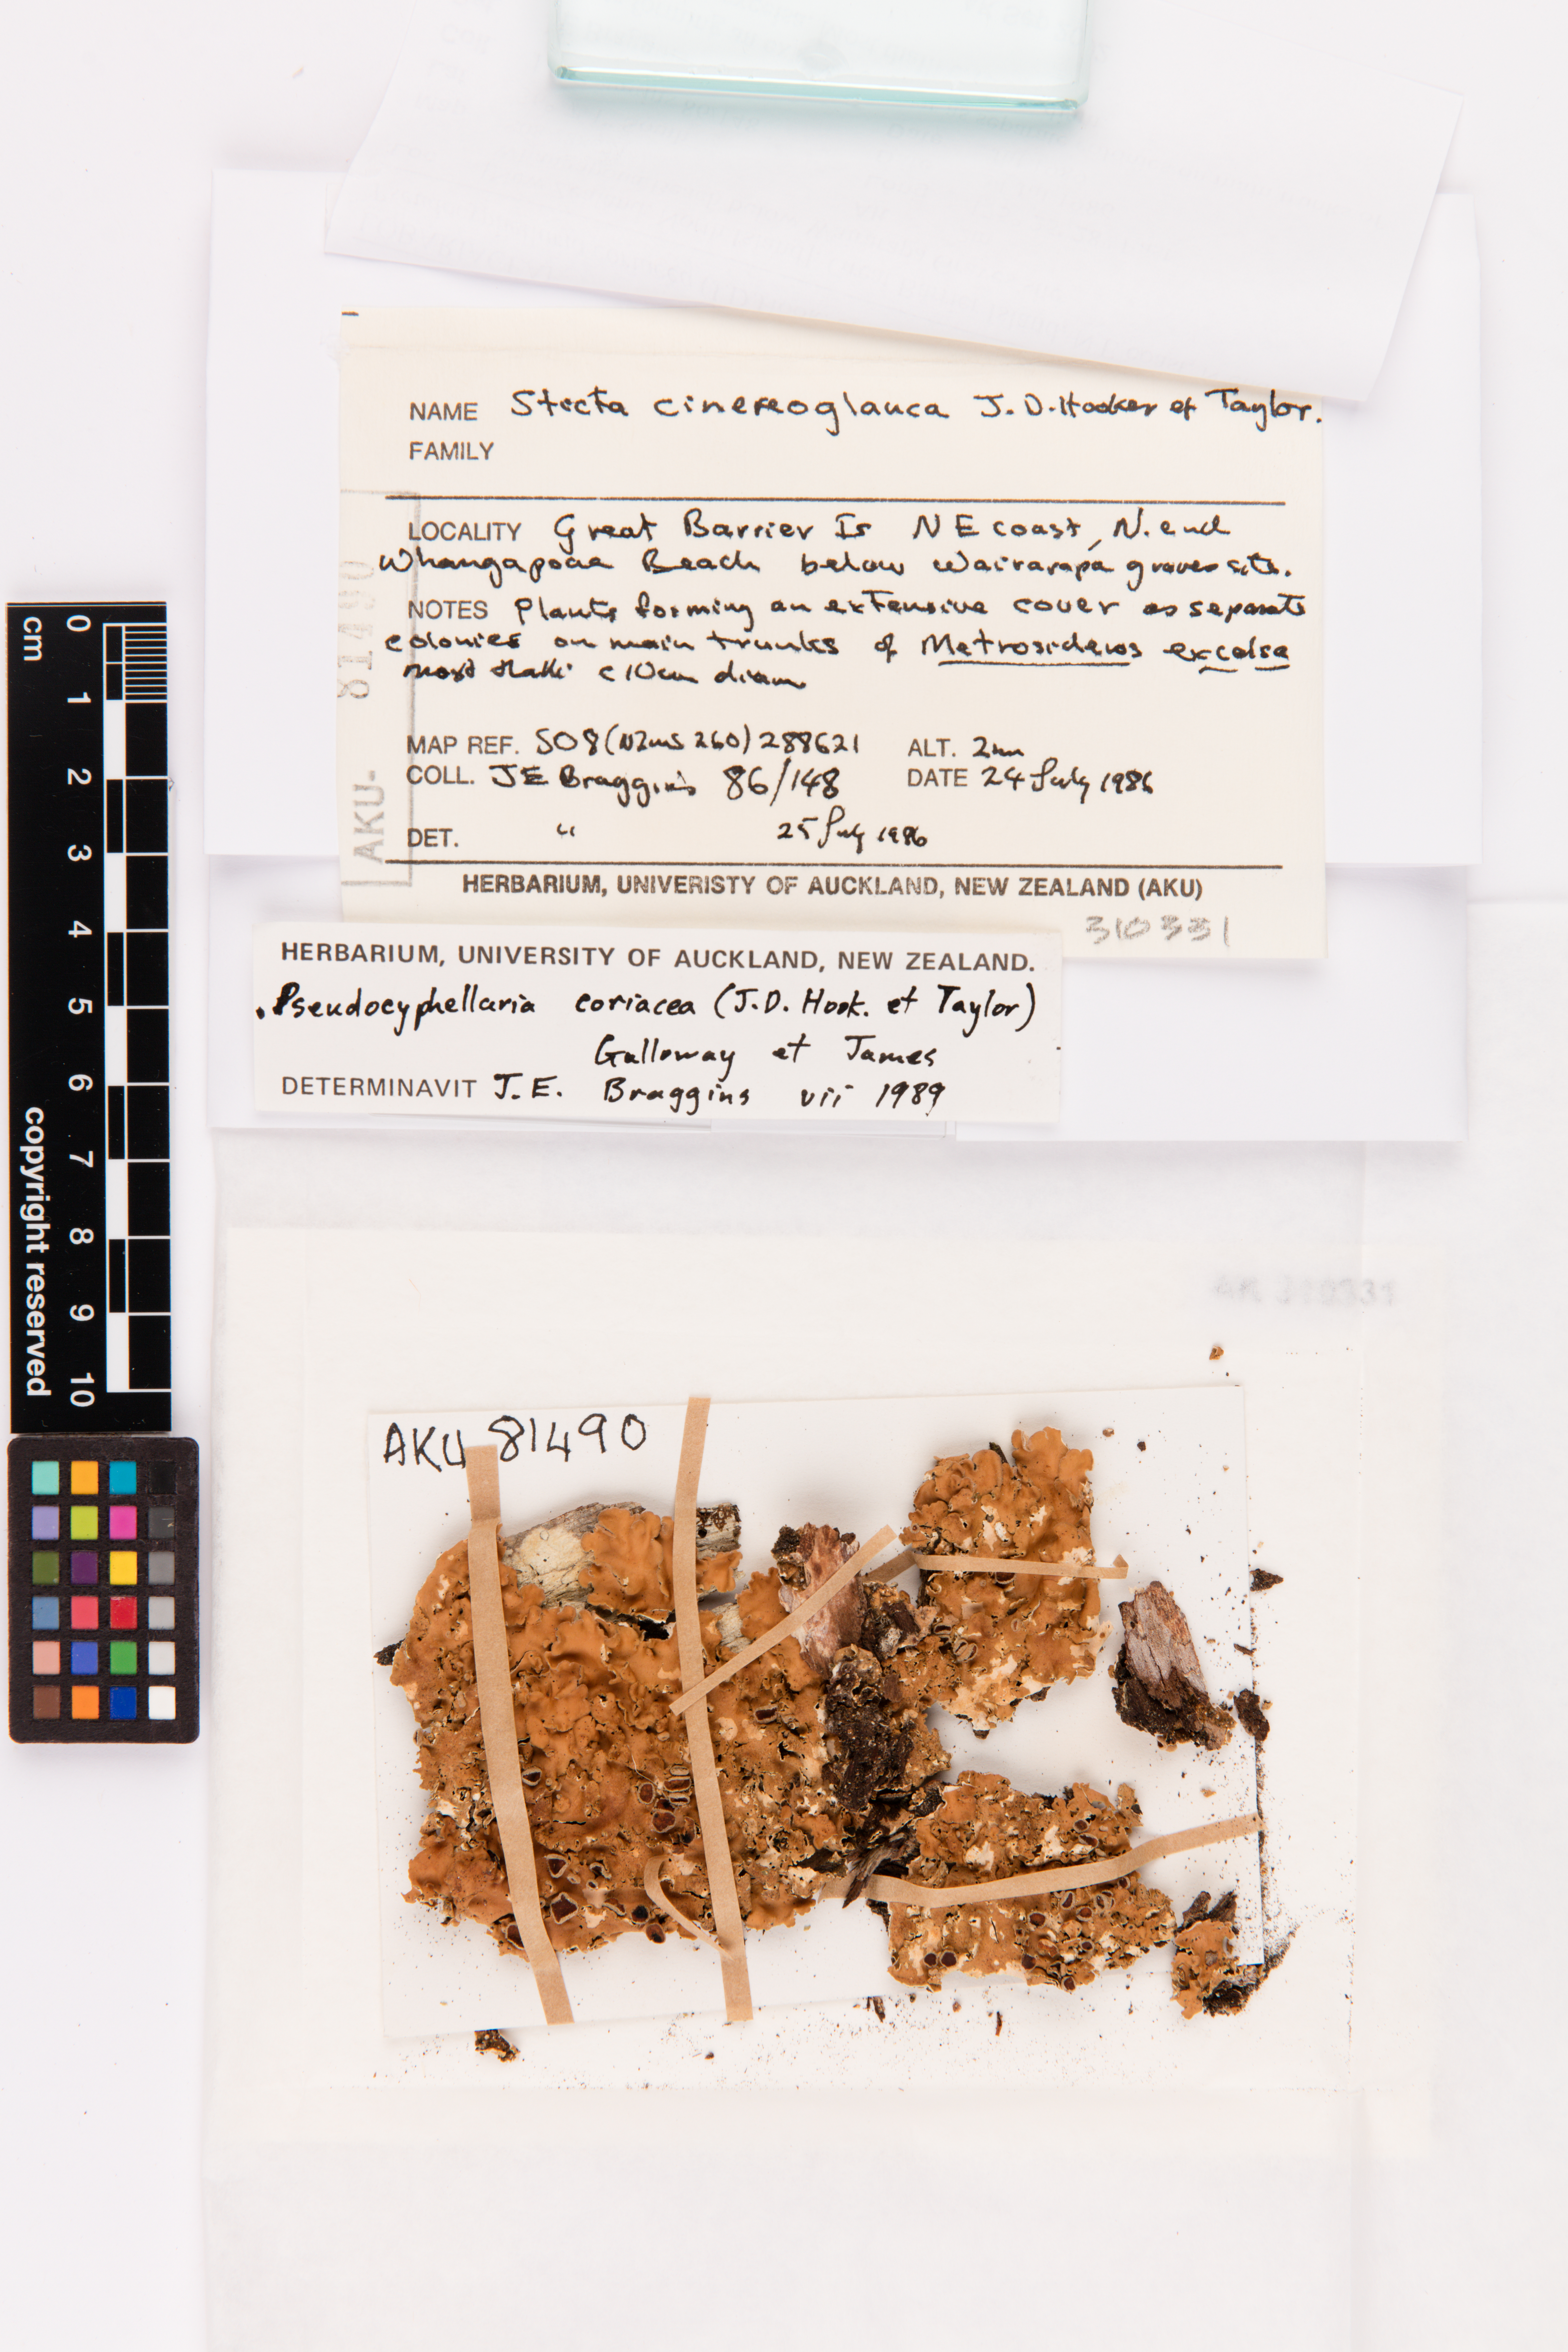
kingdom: Fungi
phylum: Ascomycota
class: Lecanoromycetes
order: Peltigerales
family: Lobariaceae
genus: Pseudocyphellaria
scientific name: Pseudocyphellaria coriacea
